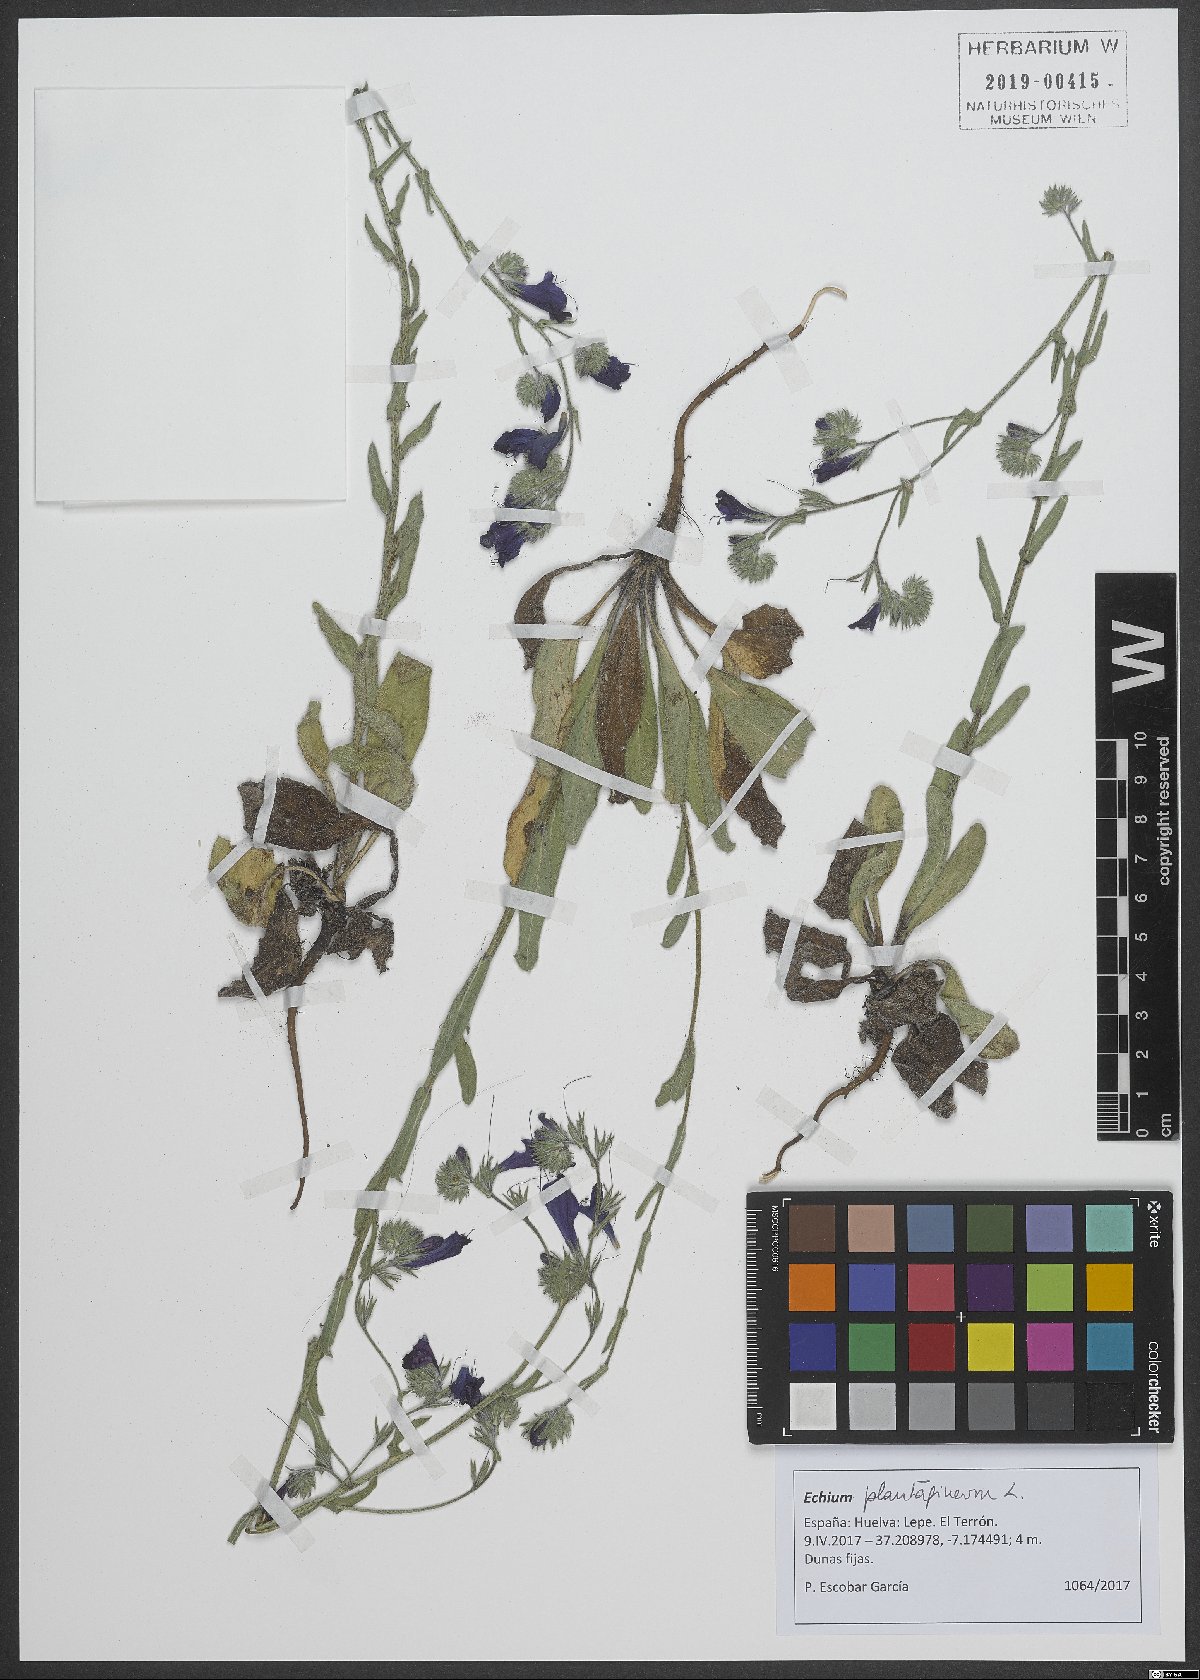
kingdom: Plantae
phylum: Tracheophyta
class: Magnoliopsida
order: Boraginales
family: Boraginaceae
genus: Echium
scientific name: Echium plantagineum
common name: Purple viper's-bugloss
